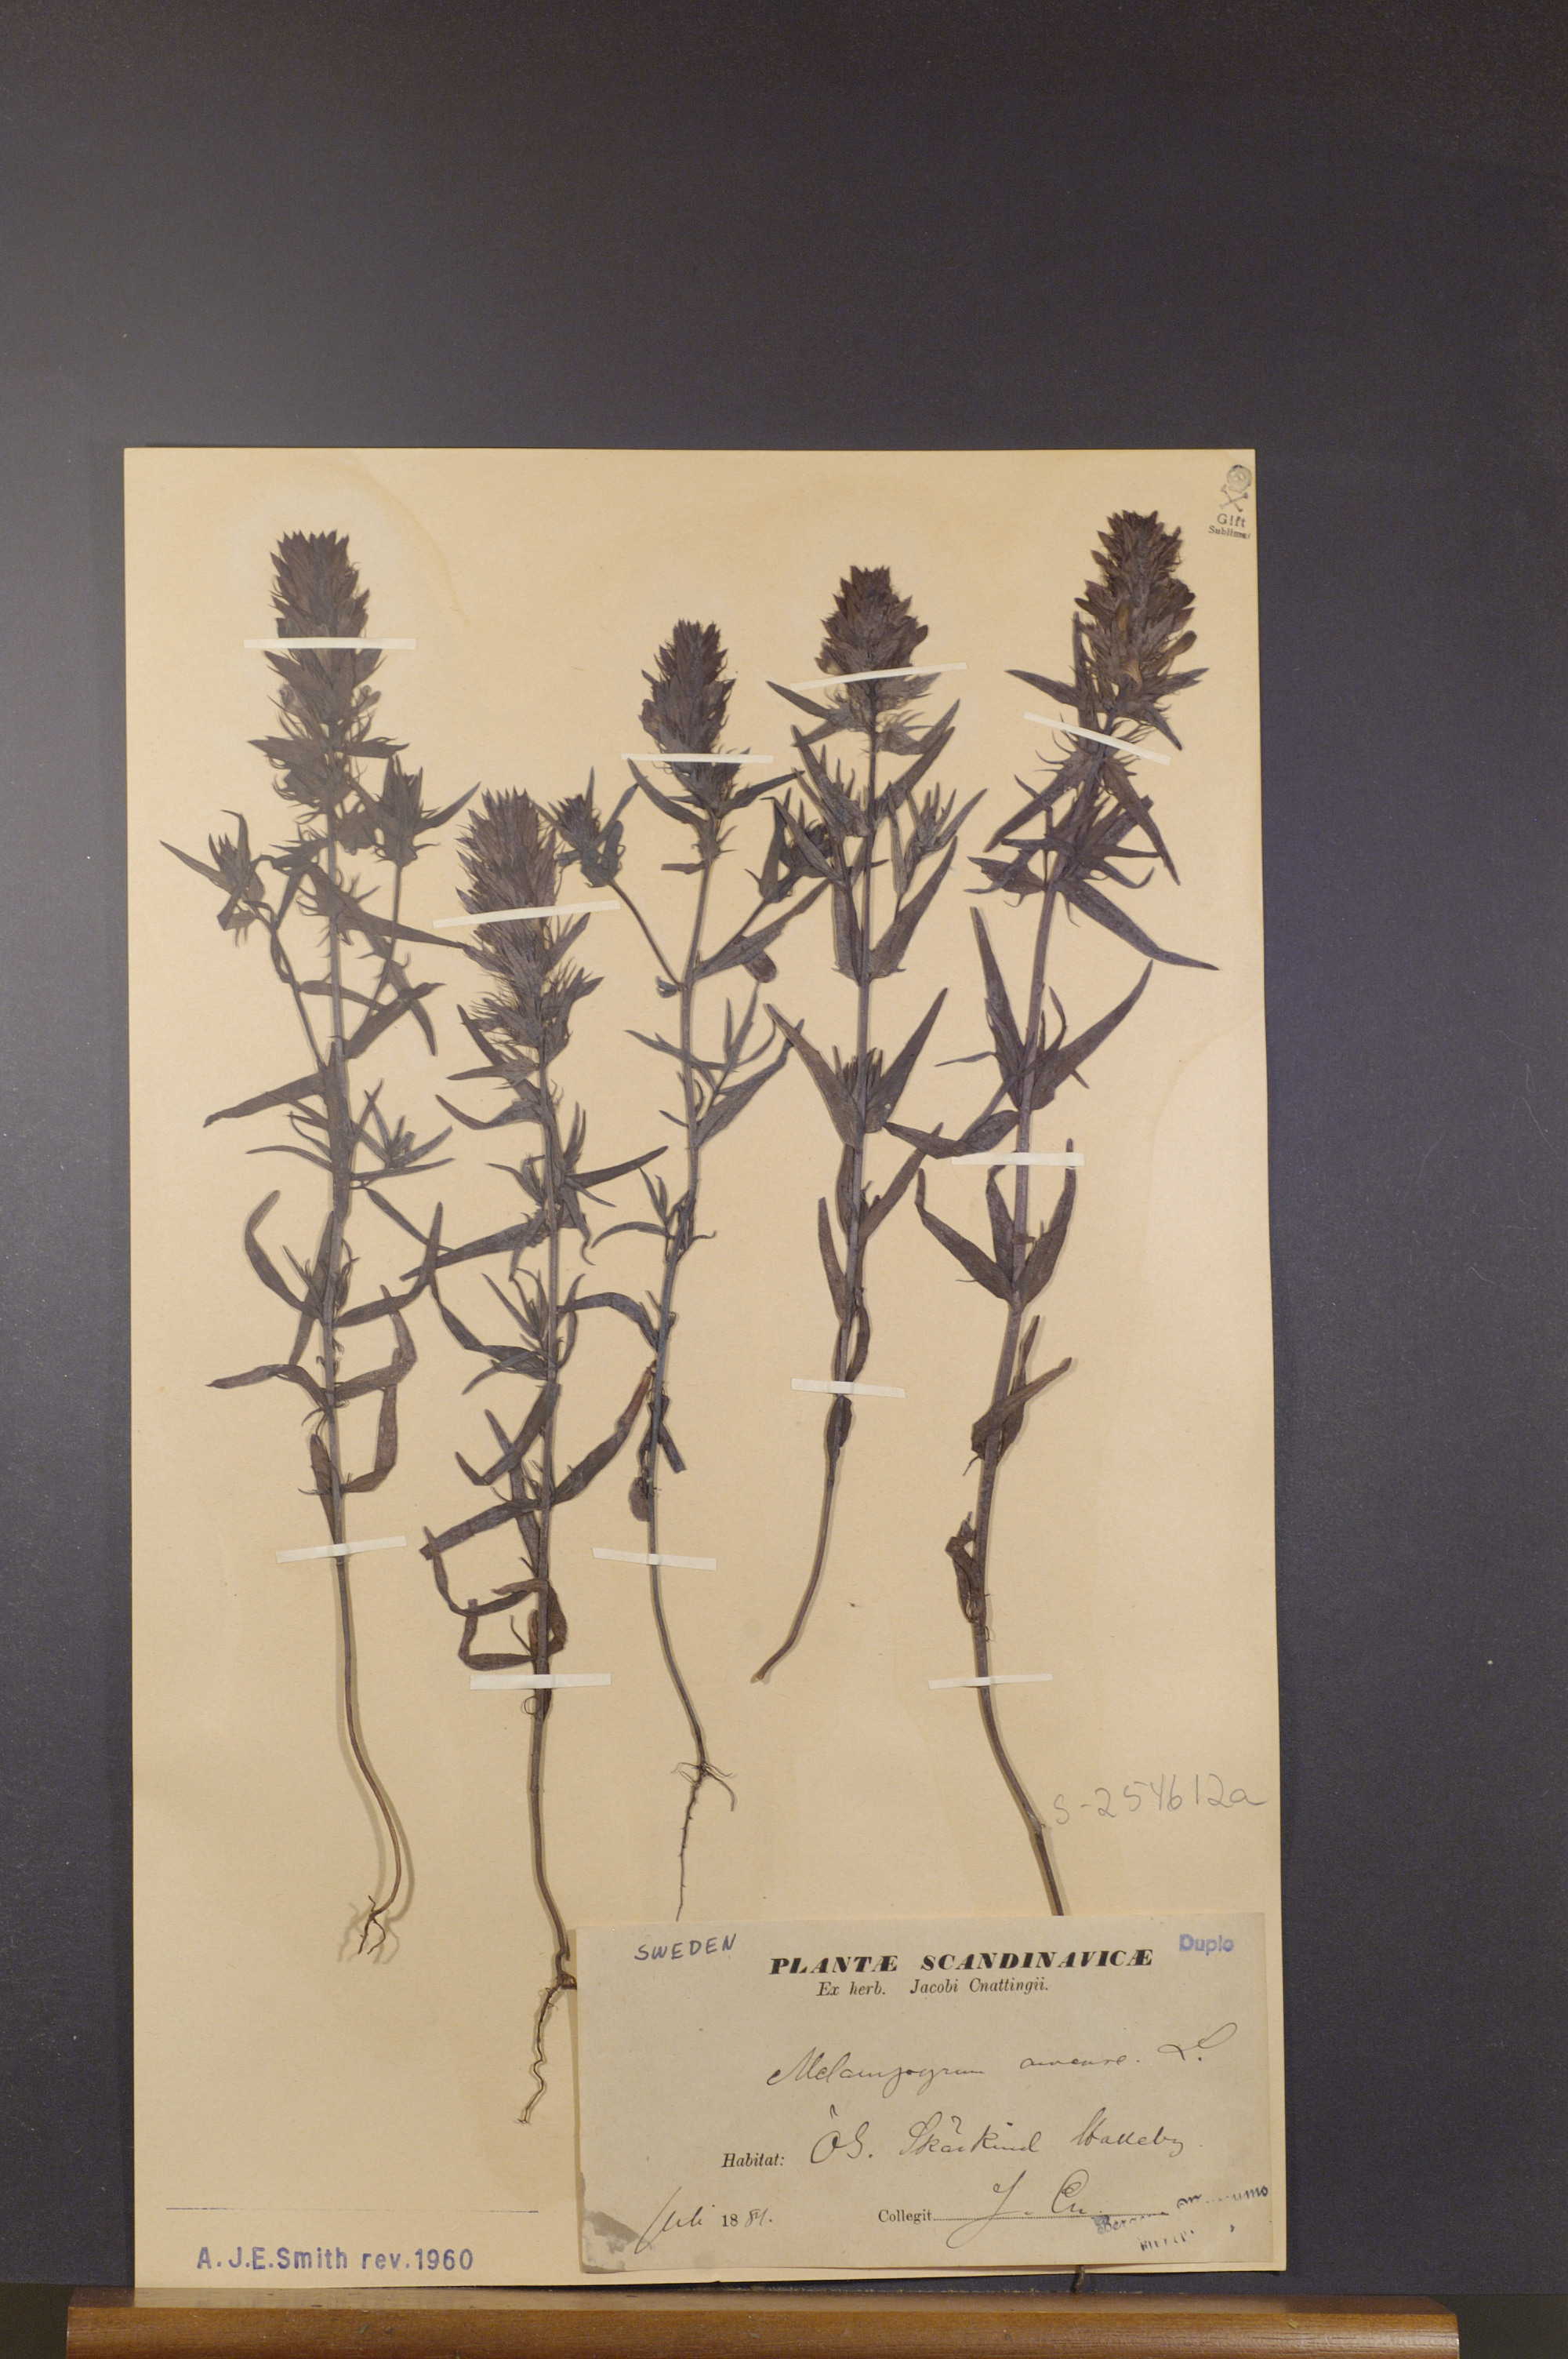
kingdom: Plantae
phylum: Tracheophyta
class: Magnoliopsida
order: Lamiales
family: Orobanchaceae
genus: Melampyrum
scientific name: Melampyrum arvense
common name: Field cow-wheat
